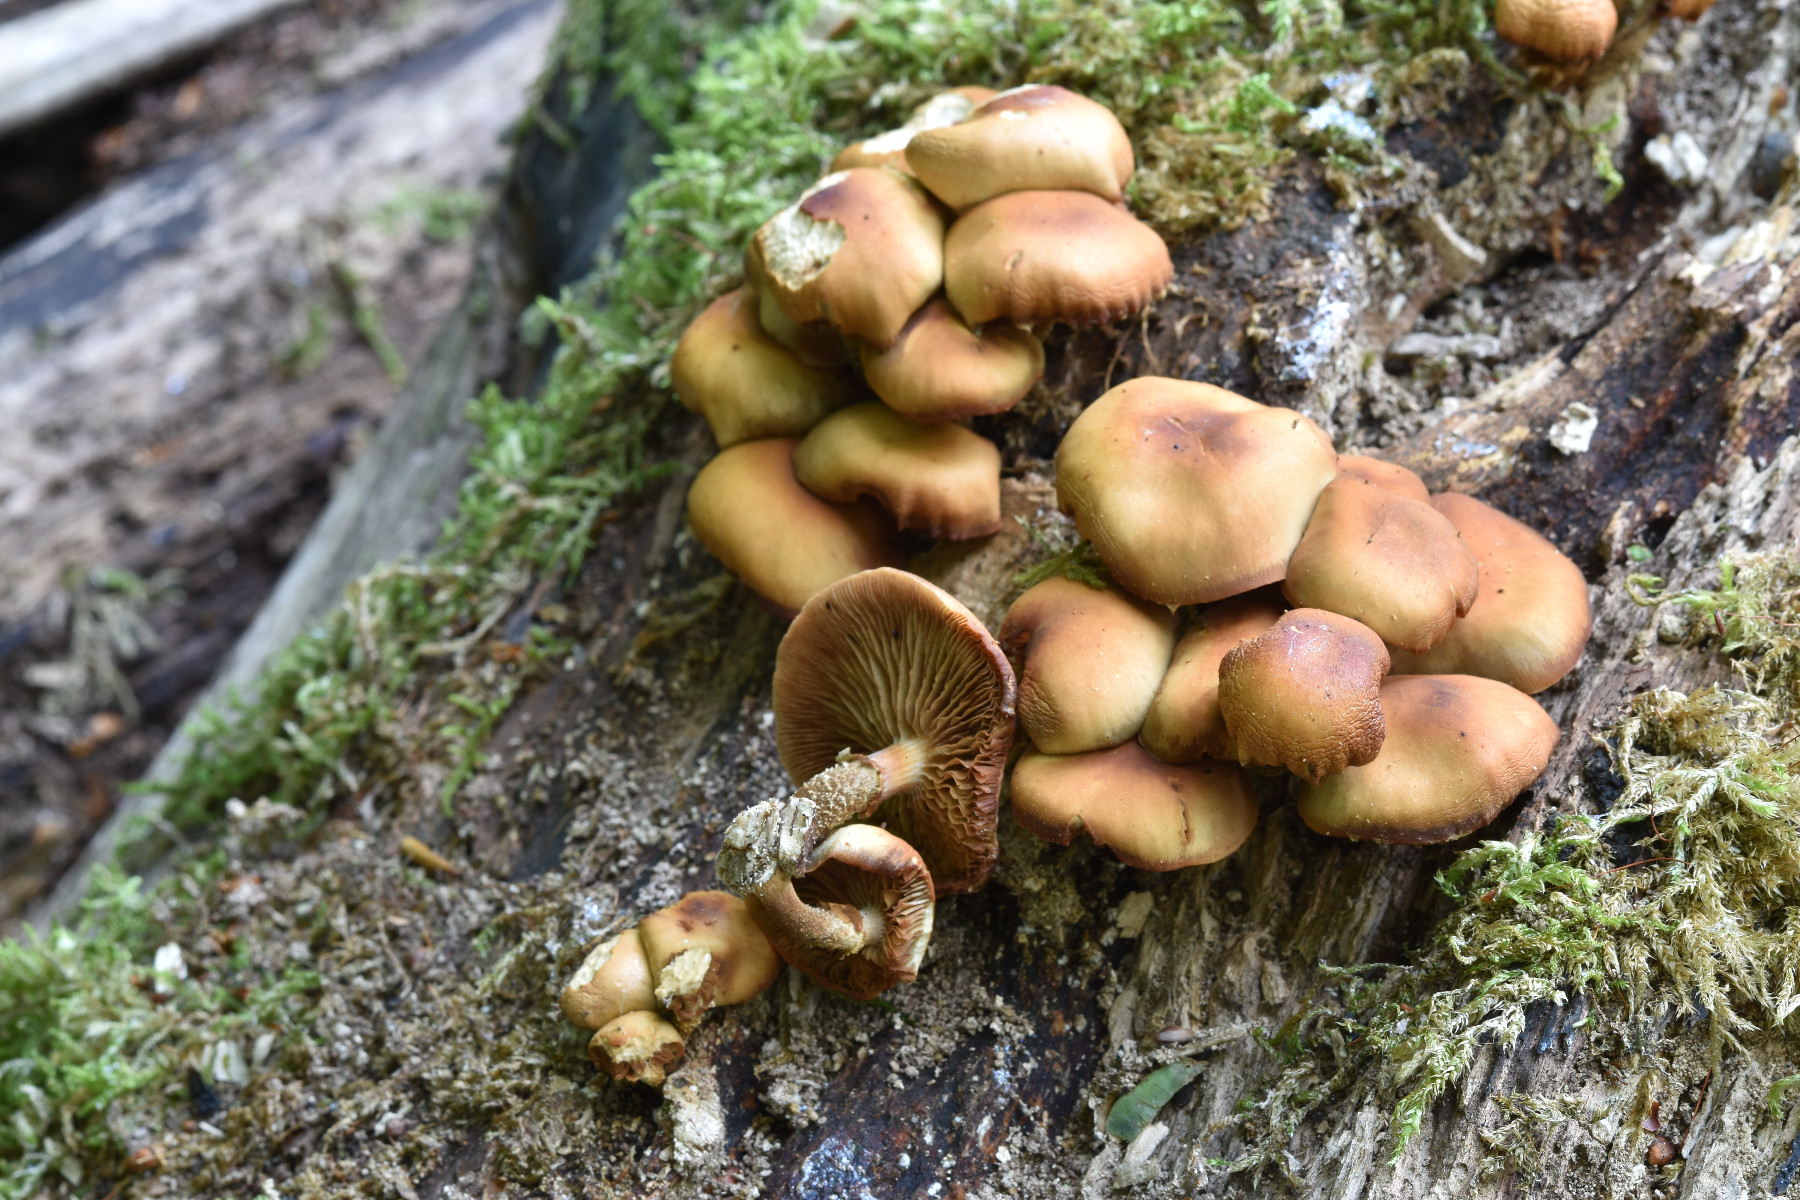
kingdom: Fungi
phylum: Basidiomycota
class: Agaricomycetes
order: Agaricales
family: Strophariaceae
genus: Kuehneromyces
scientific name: Kuehneromyces mutabilis
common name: foranderlig skælhat
